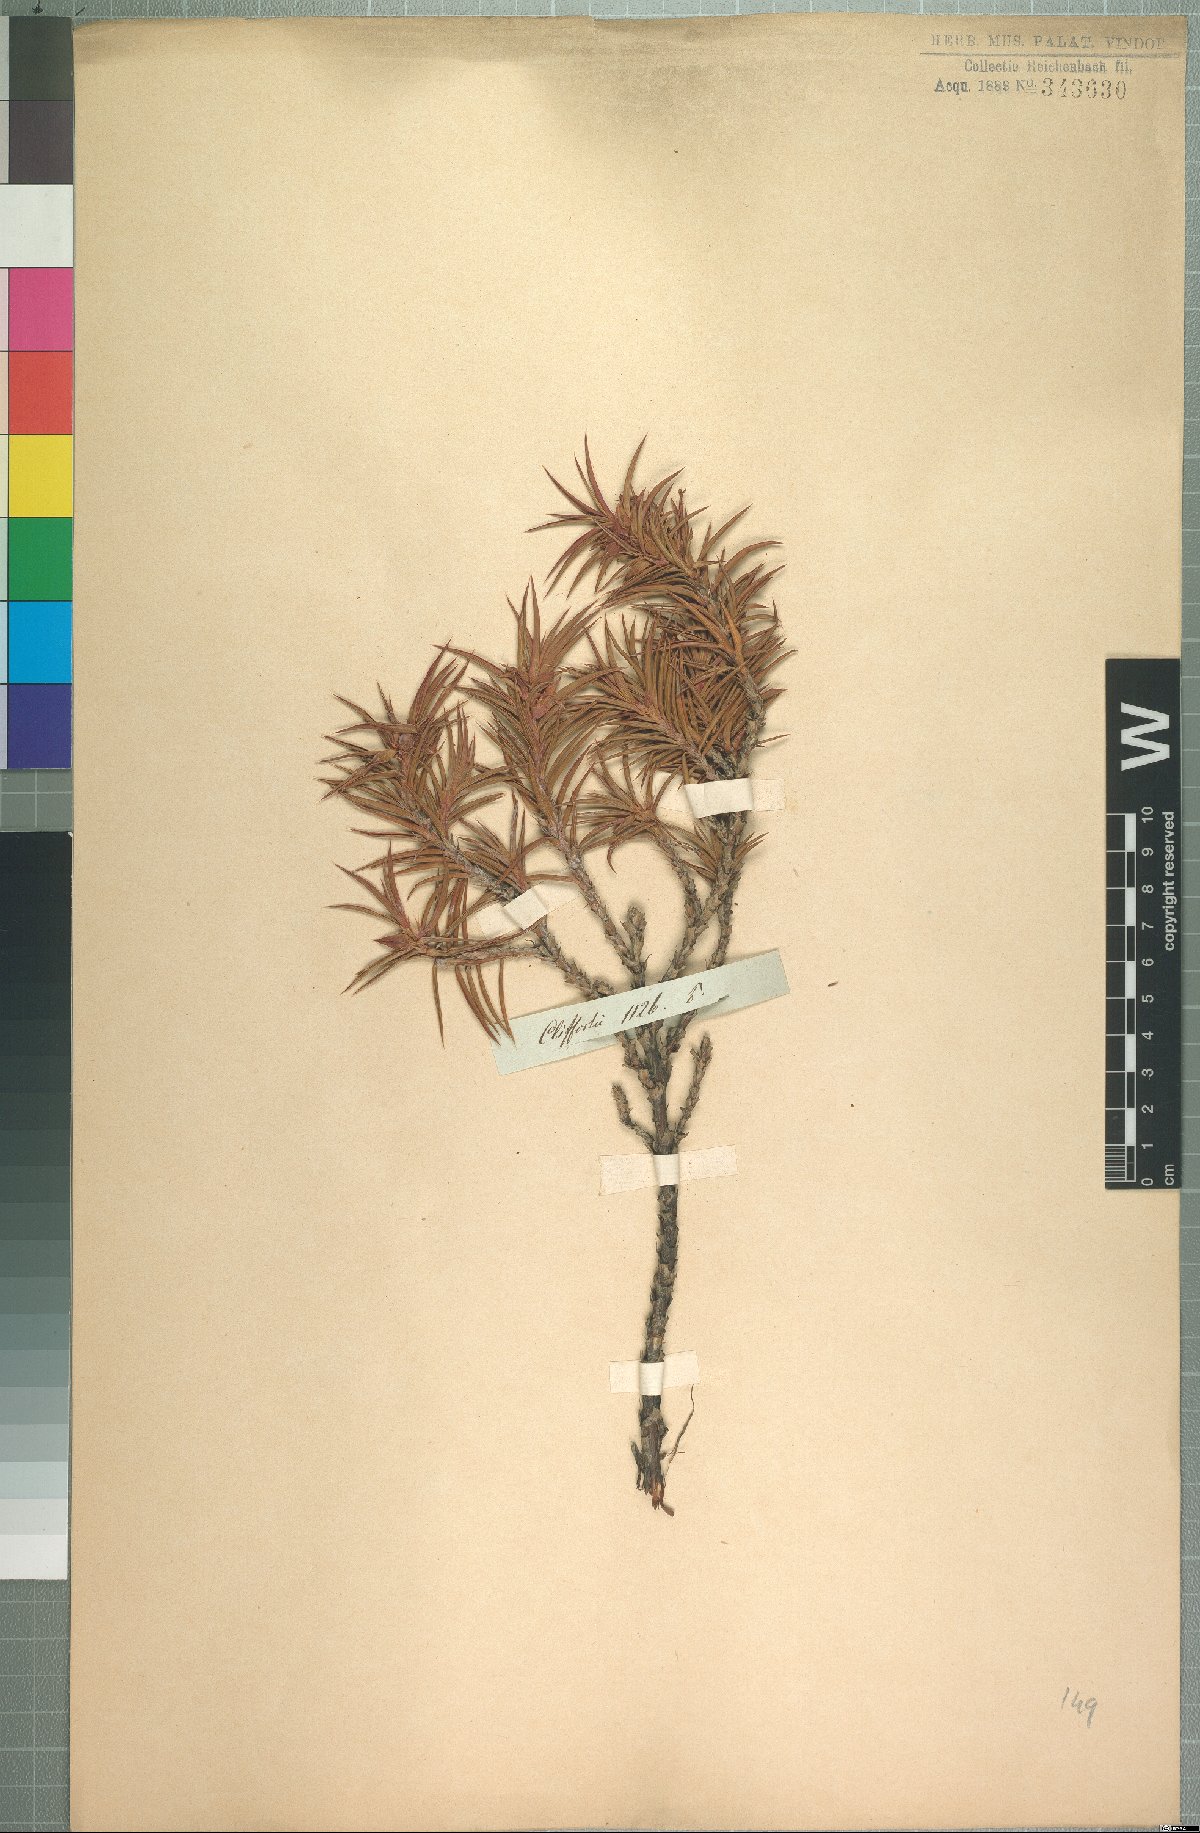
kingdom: Plantae
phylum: Tracheophyta
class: Magnoliopsida
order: Rosales
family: Rosaceae
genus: Cliffortia
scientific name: Cliffortia dregeana
